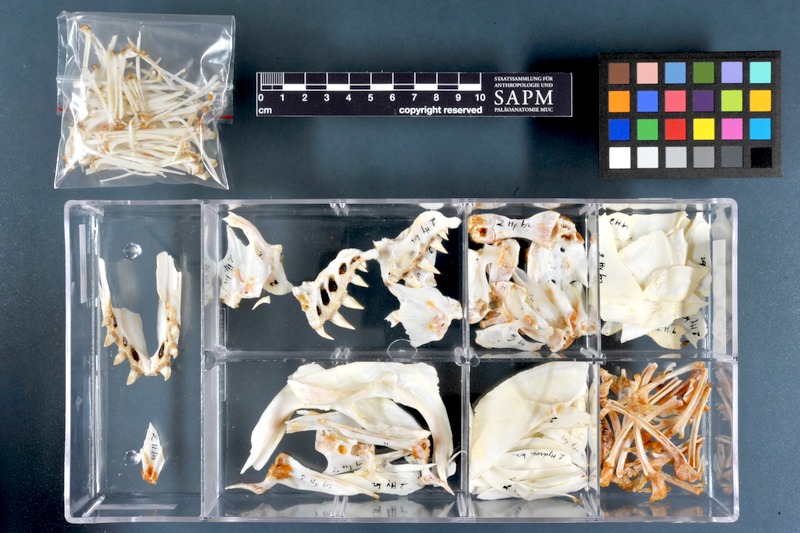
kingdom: Animalia
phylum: Chordata
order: Characiformes
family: Alestidae
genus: Hydrocynus
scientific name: Hydrocynus brevis
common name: Tiger fish
